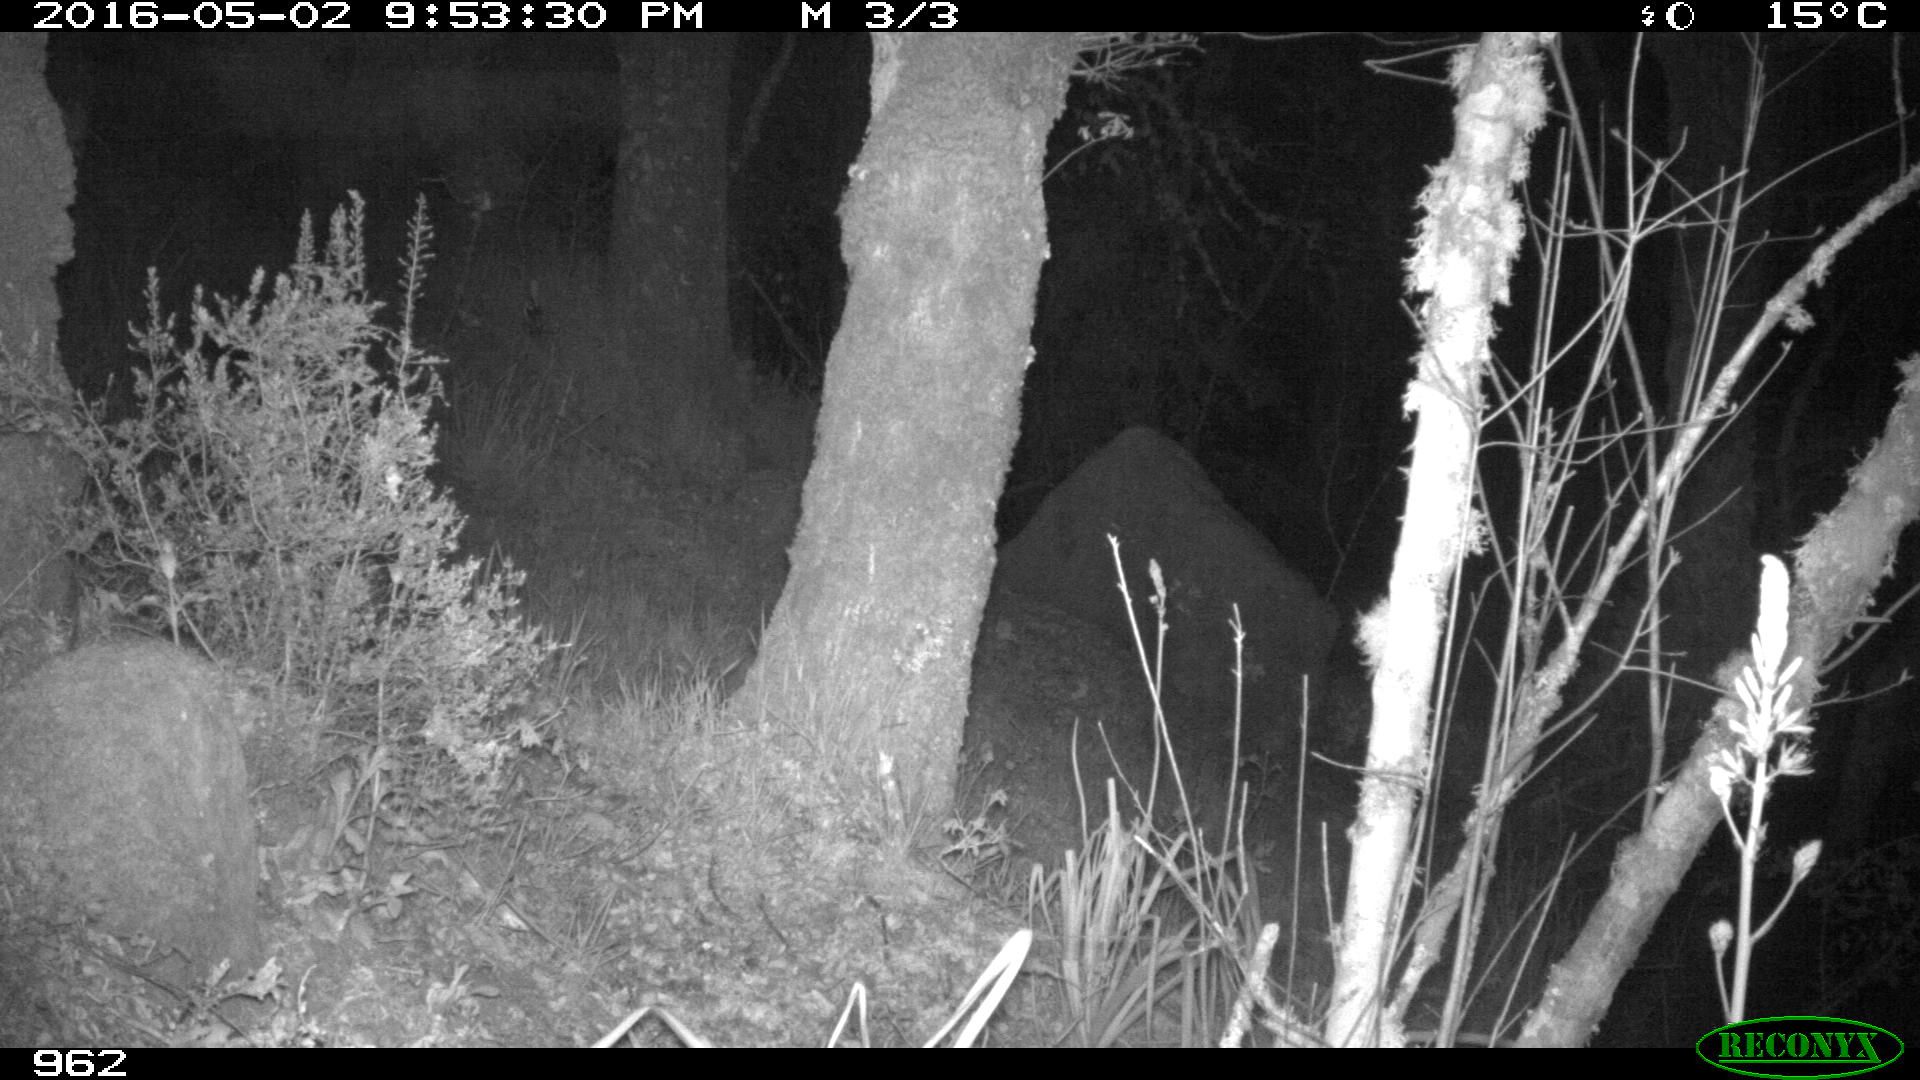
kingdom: Animalia
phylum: Chordata
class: Mammalia
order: Artiodactyla
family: Cervidae
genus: Capreolus
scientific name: Capreolus capreolus
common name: Western roe deer
